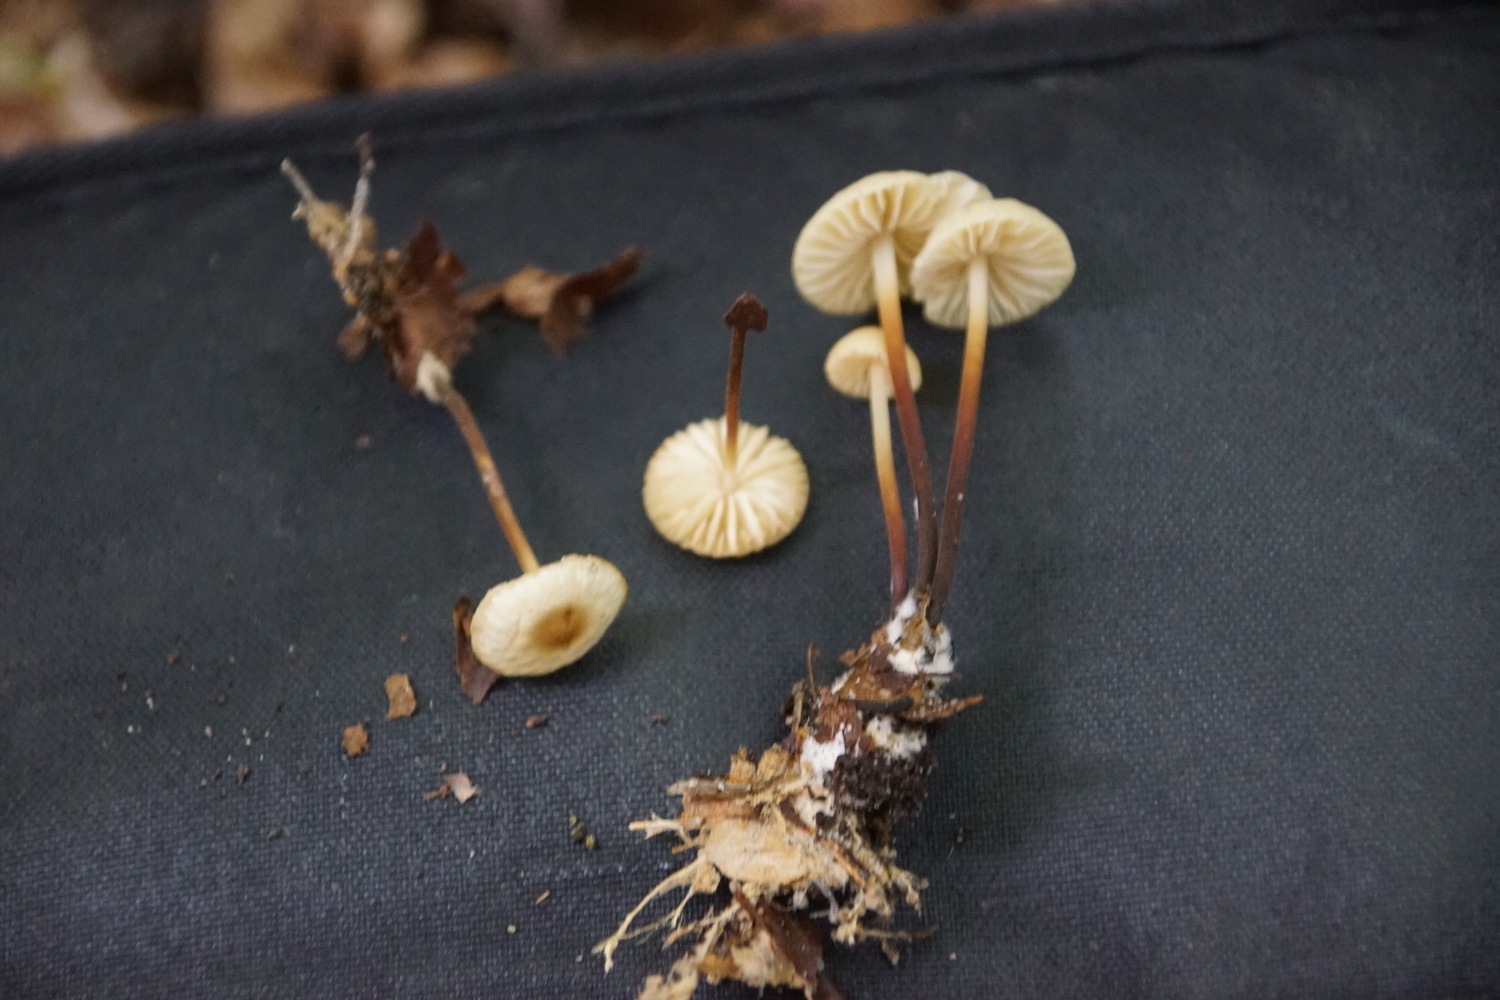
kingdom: Fungi
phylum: Basidiomycota
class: Agaricomycetes
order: Agaricales
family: Marasmiaceae
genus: Marasmius
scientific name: Marasmius torquescens
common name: filtfodet bruskhat
